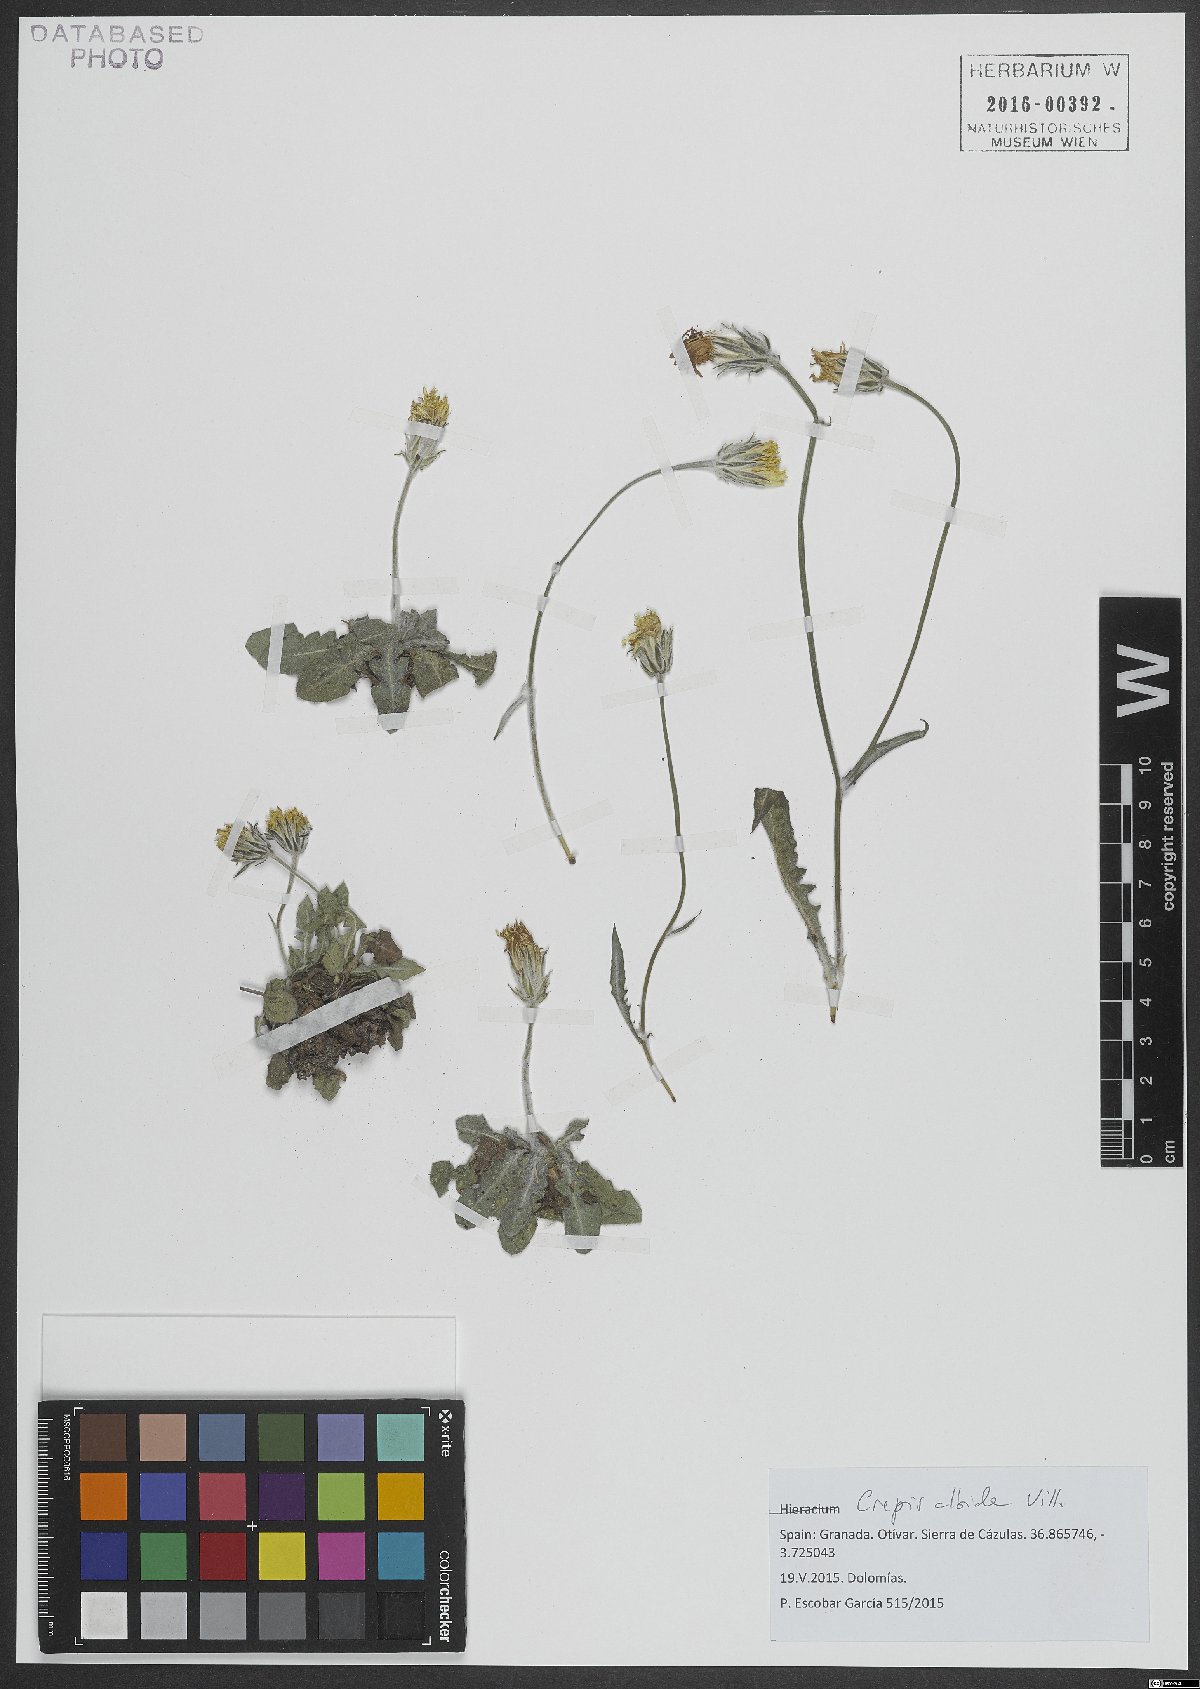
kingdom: Plantae
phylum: Tracheophyta
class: Magnoliopsida
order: Asterales
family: Asteraceae
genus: Crepis
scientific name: Crepis albida
